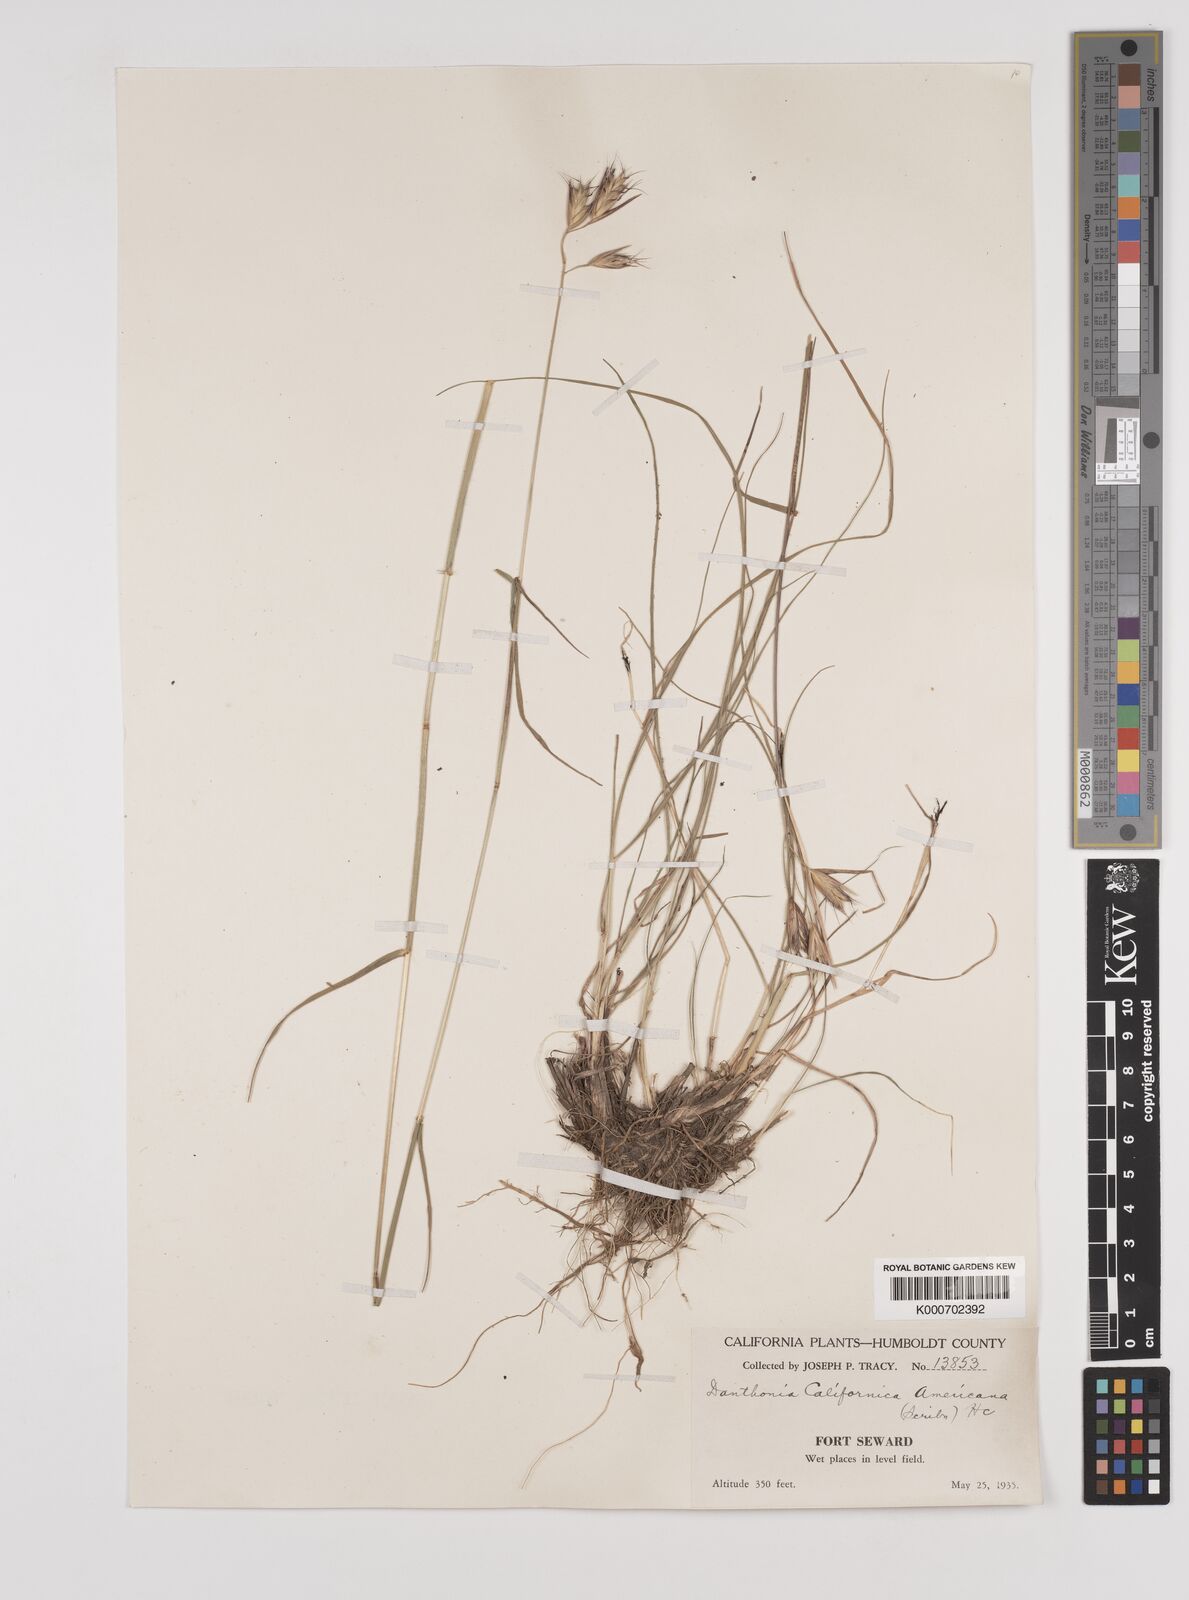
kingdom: Plantae
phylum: Tracheophyta
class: Liliopsida
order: Poales
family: Poaceae
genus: Danthonia
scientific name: Danthonia californica
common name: California oat grass
